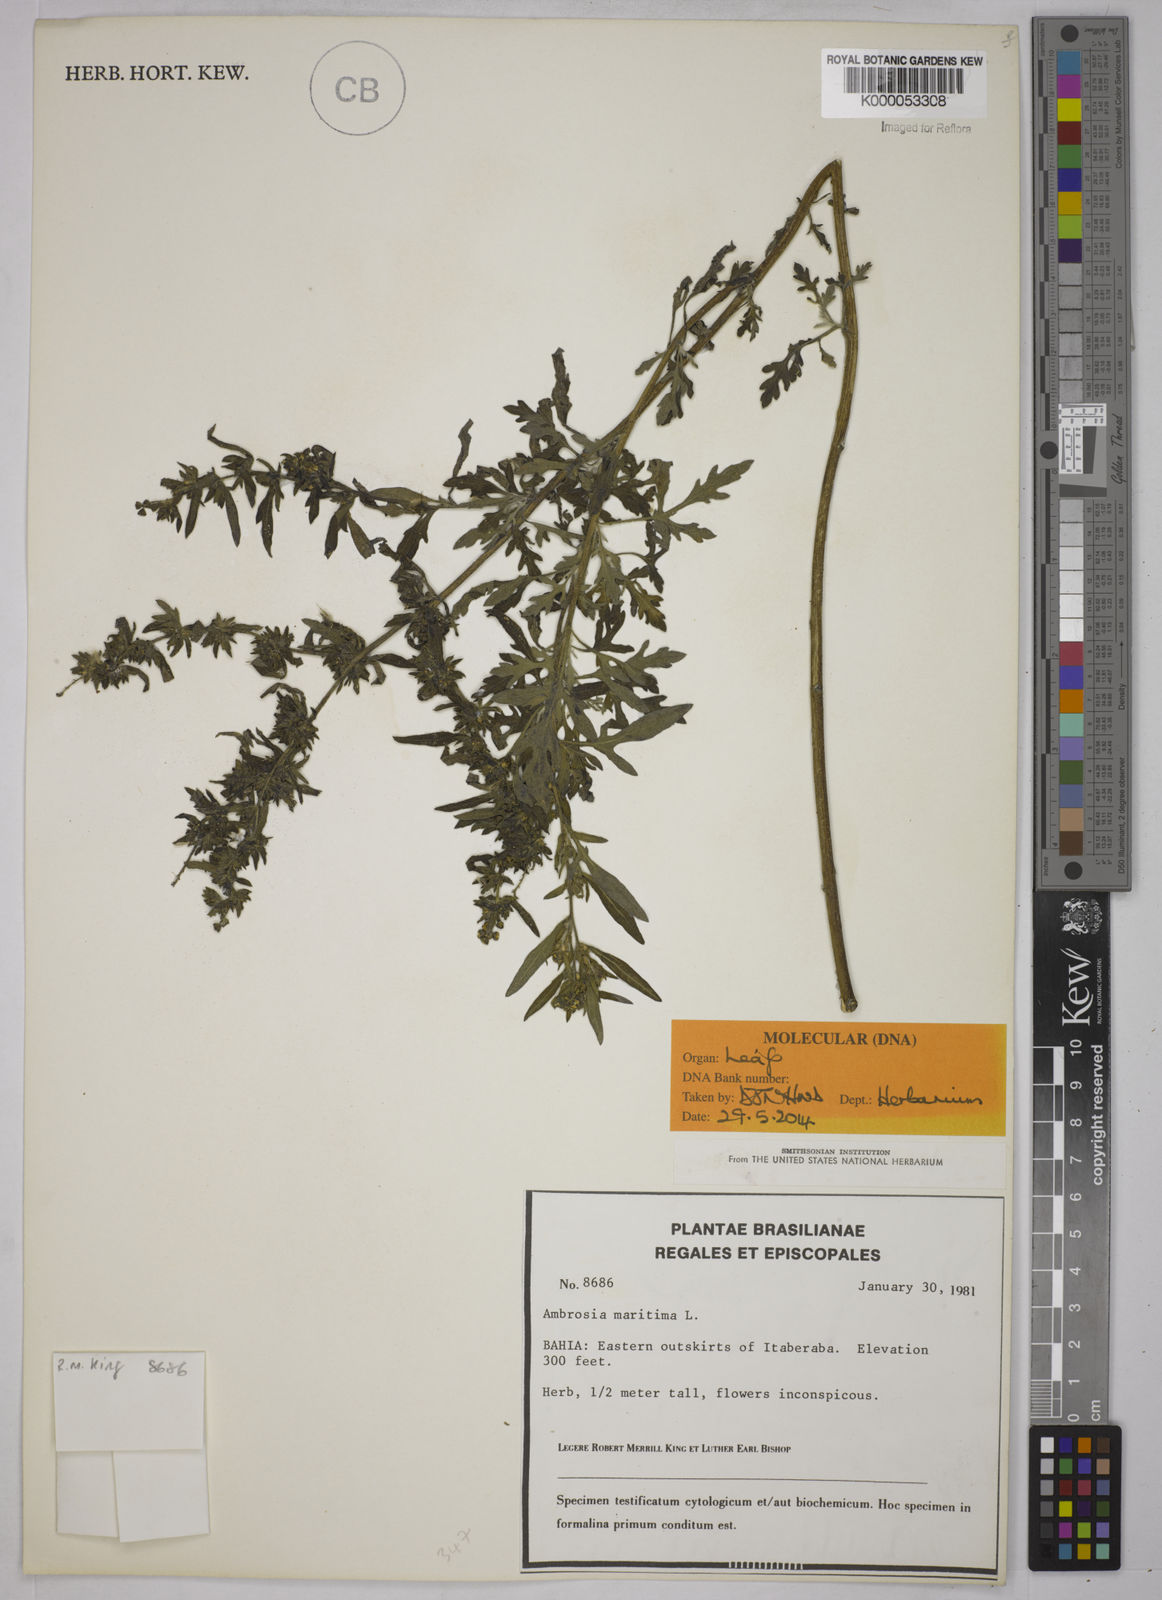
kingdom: Plantae
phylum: Tracheophyta
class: Magnoliopsida
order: Asterales
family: Asteraceae
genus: Ambrosia
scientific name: Ambrosia maritima
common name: Sea ambrosia
